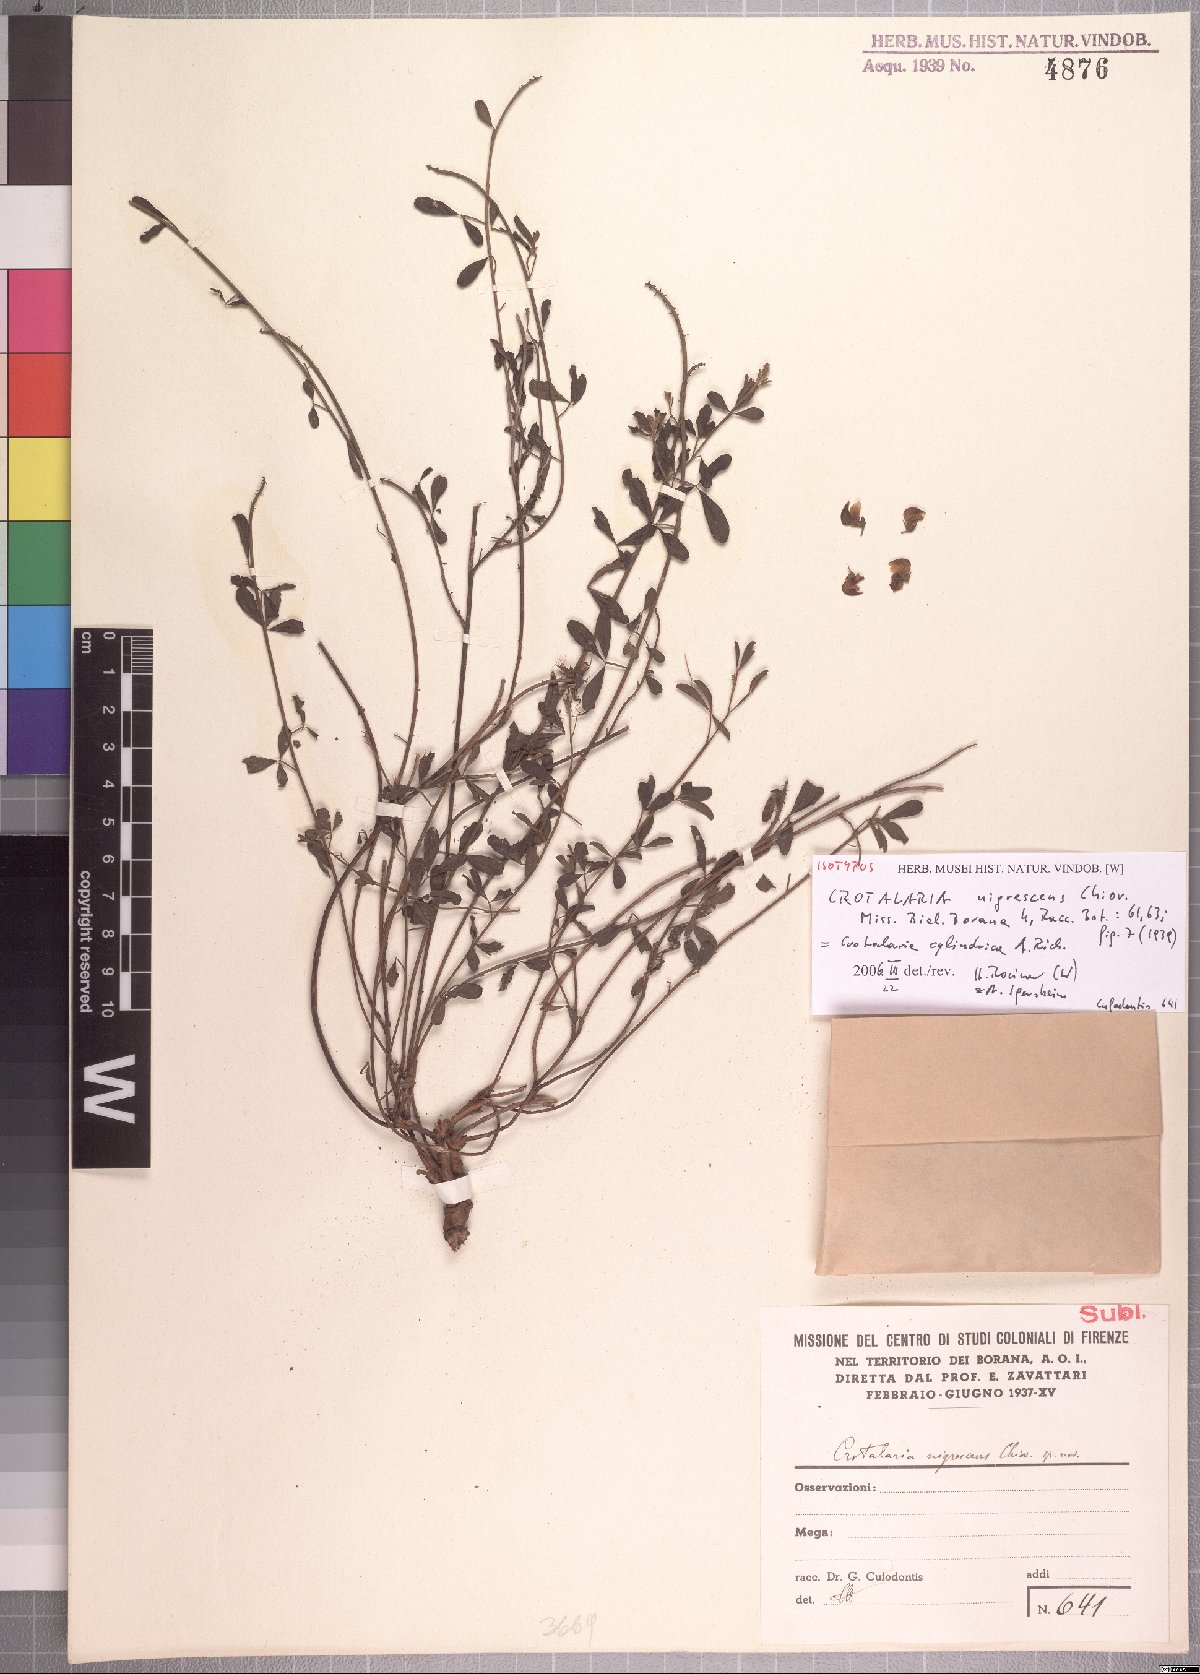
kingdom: Plantae
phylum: Tracheophyta
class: Magnoliopsida
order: Fabales
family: Fabaceae
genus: Crotalaria
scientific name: Crotalaria cylindrica
